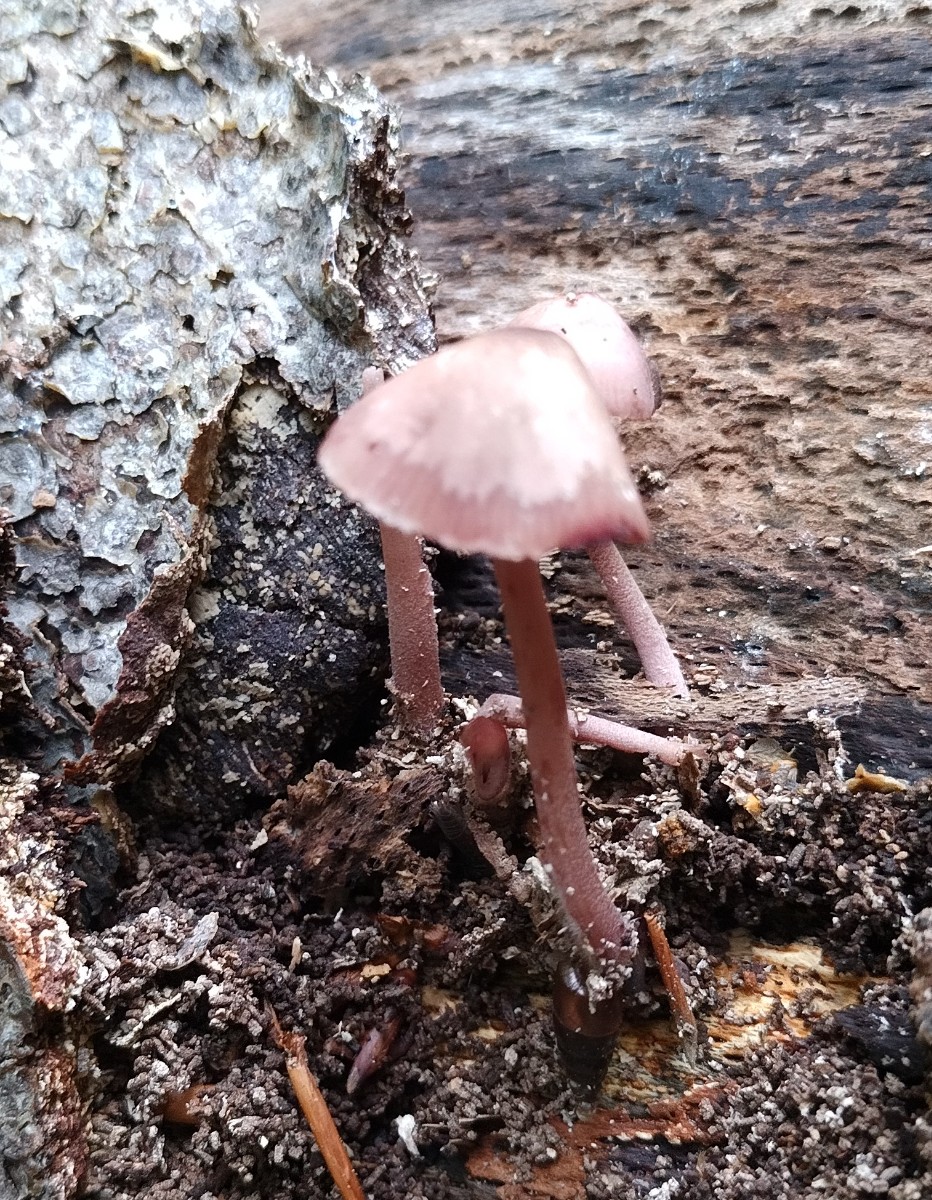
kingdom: Fungi
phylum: Basidiomycota
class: Agaricomycetes
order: Agaricales
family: Mycenaceae
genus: Mycena
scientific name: Mycena haematopus
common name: blødende huesvamp
